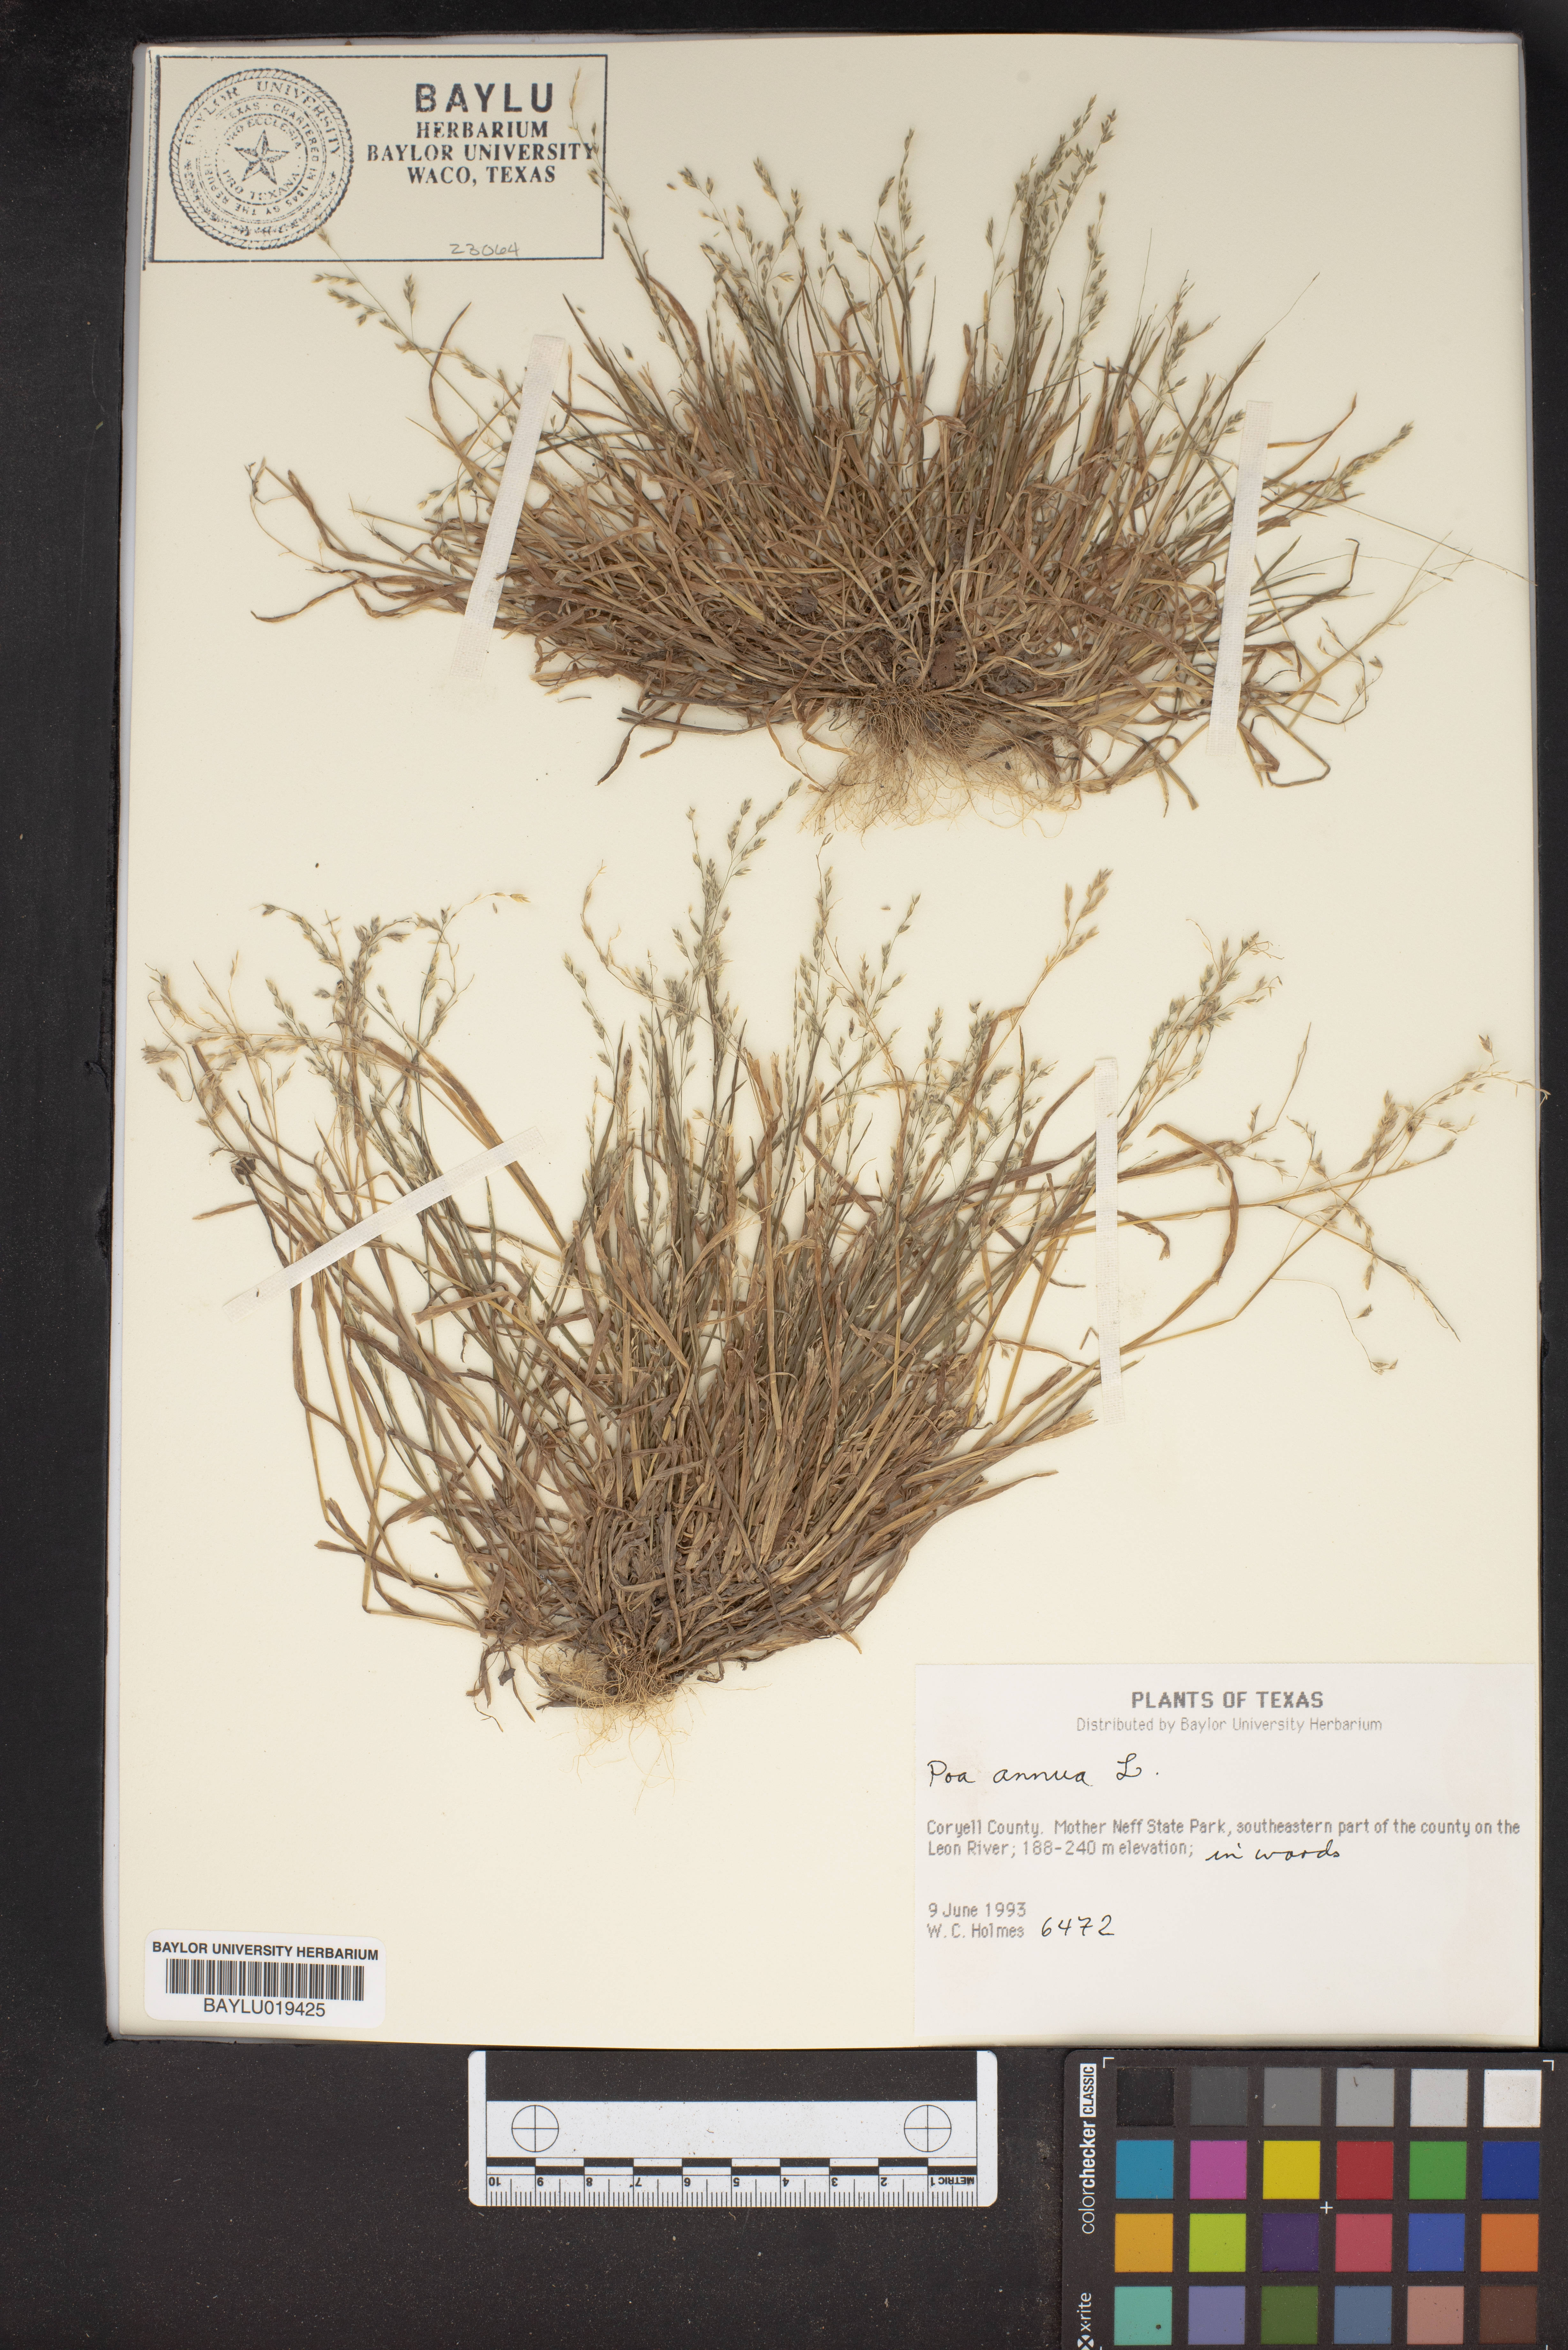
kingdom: Plantae
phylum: Tracheophyta
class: Liliopsida
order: Poales
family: Poaceae
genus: Poa
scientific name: Poa annua
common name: Annual bluegrass
